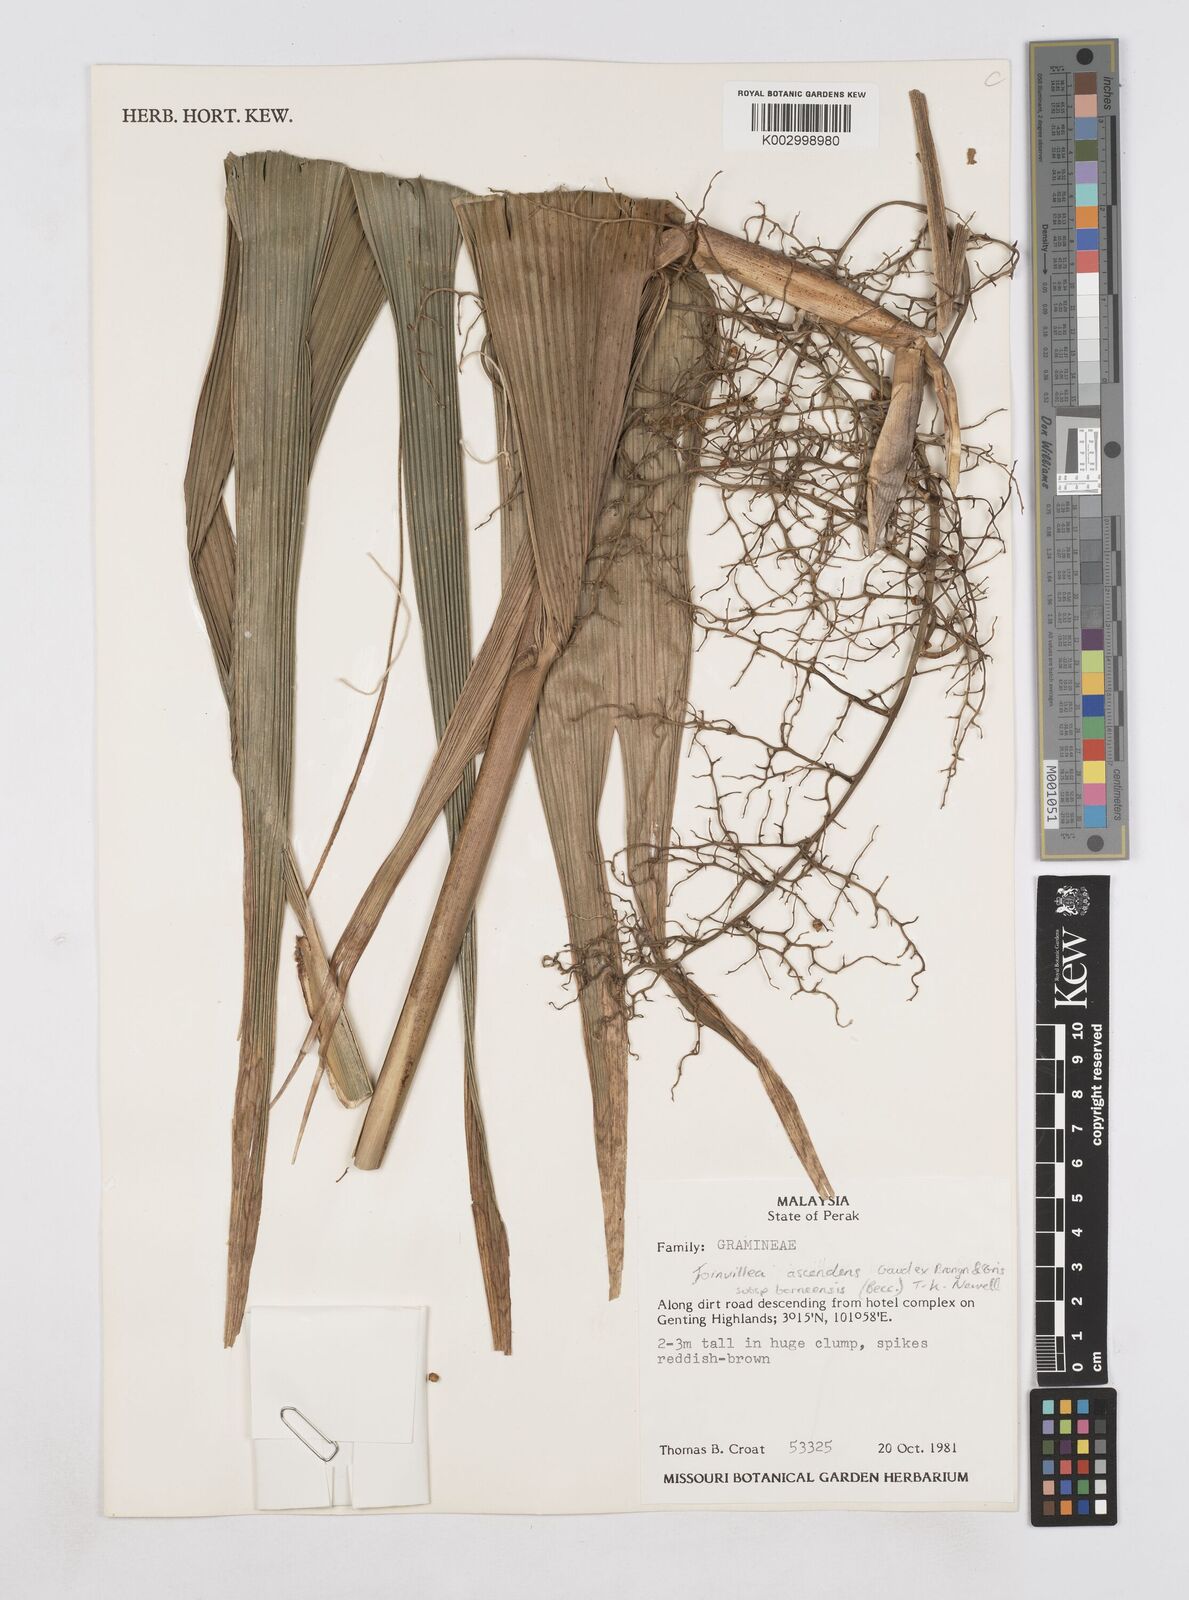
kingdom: Plantae
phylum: Tracheophyta
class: Liliopsida
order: Poales
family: Joinvilleaceae
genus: Joinvillea
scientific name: Joinvillea borneensis
